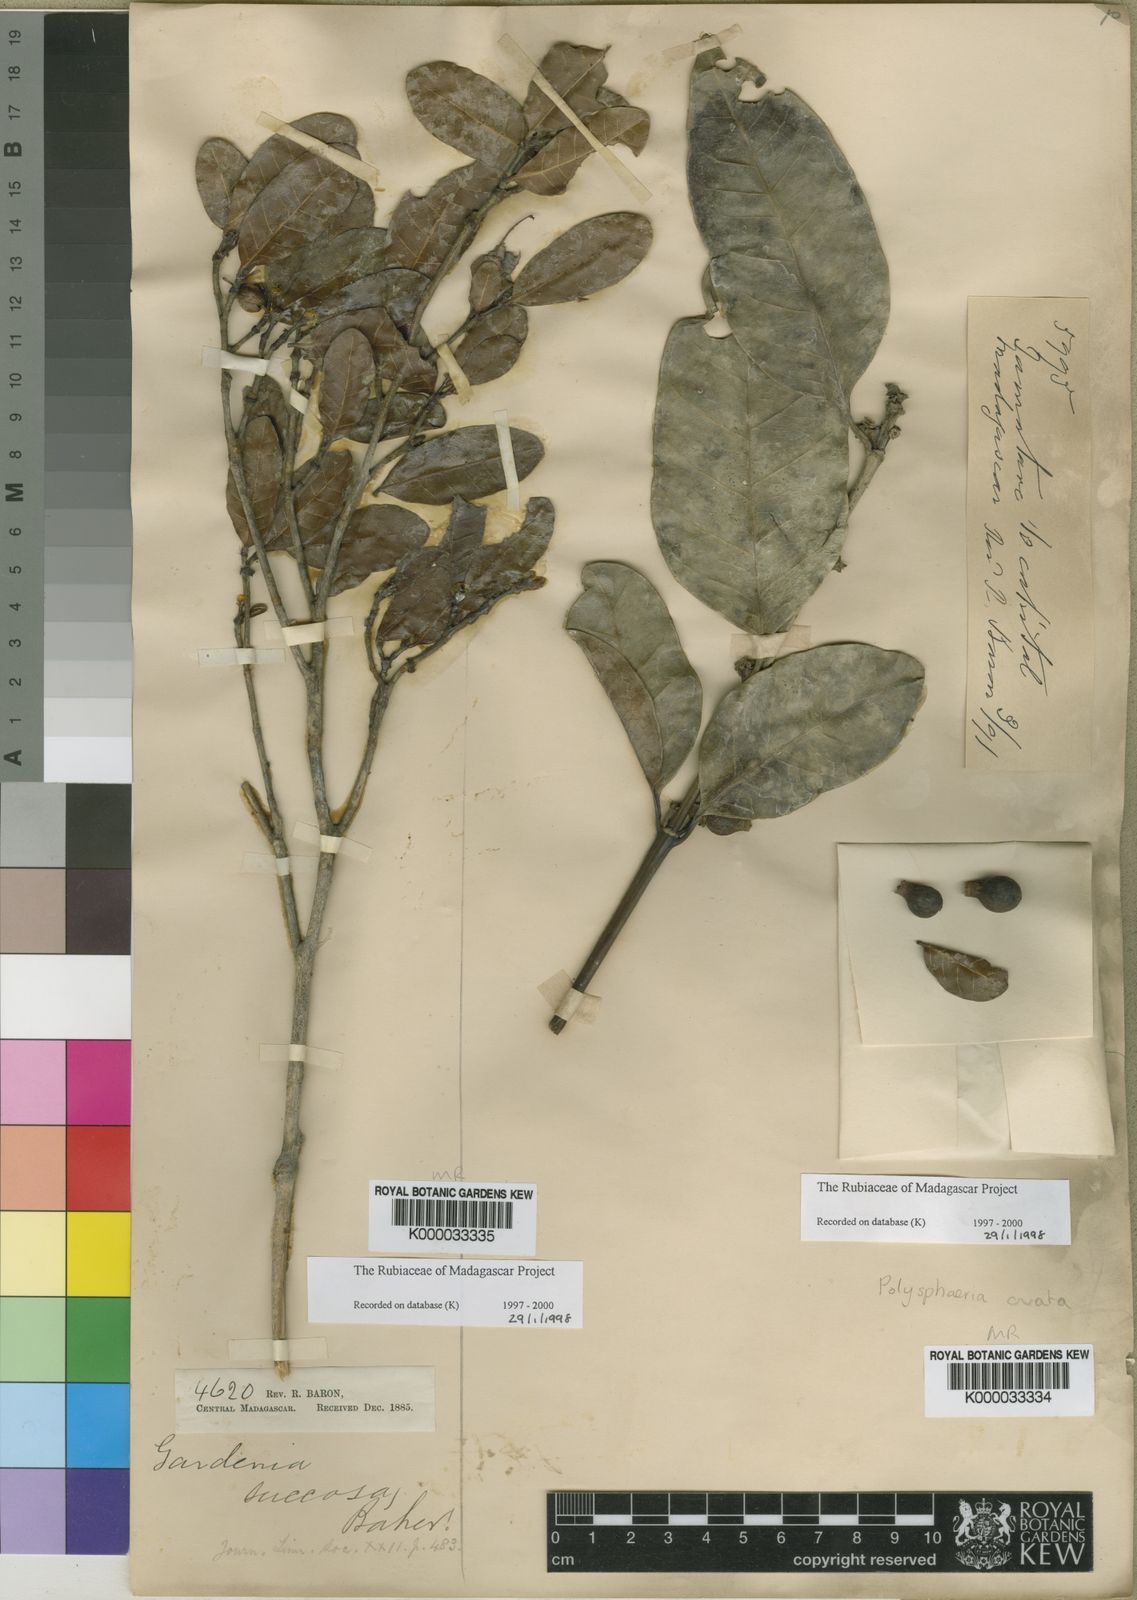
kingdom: Plantae
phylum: Tracheophyta
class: Magnoliopsida
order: Gentianales
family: Rubiaceae
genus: Gardenia
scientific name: Gardenia rutenbergiana
